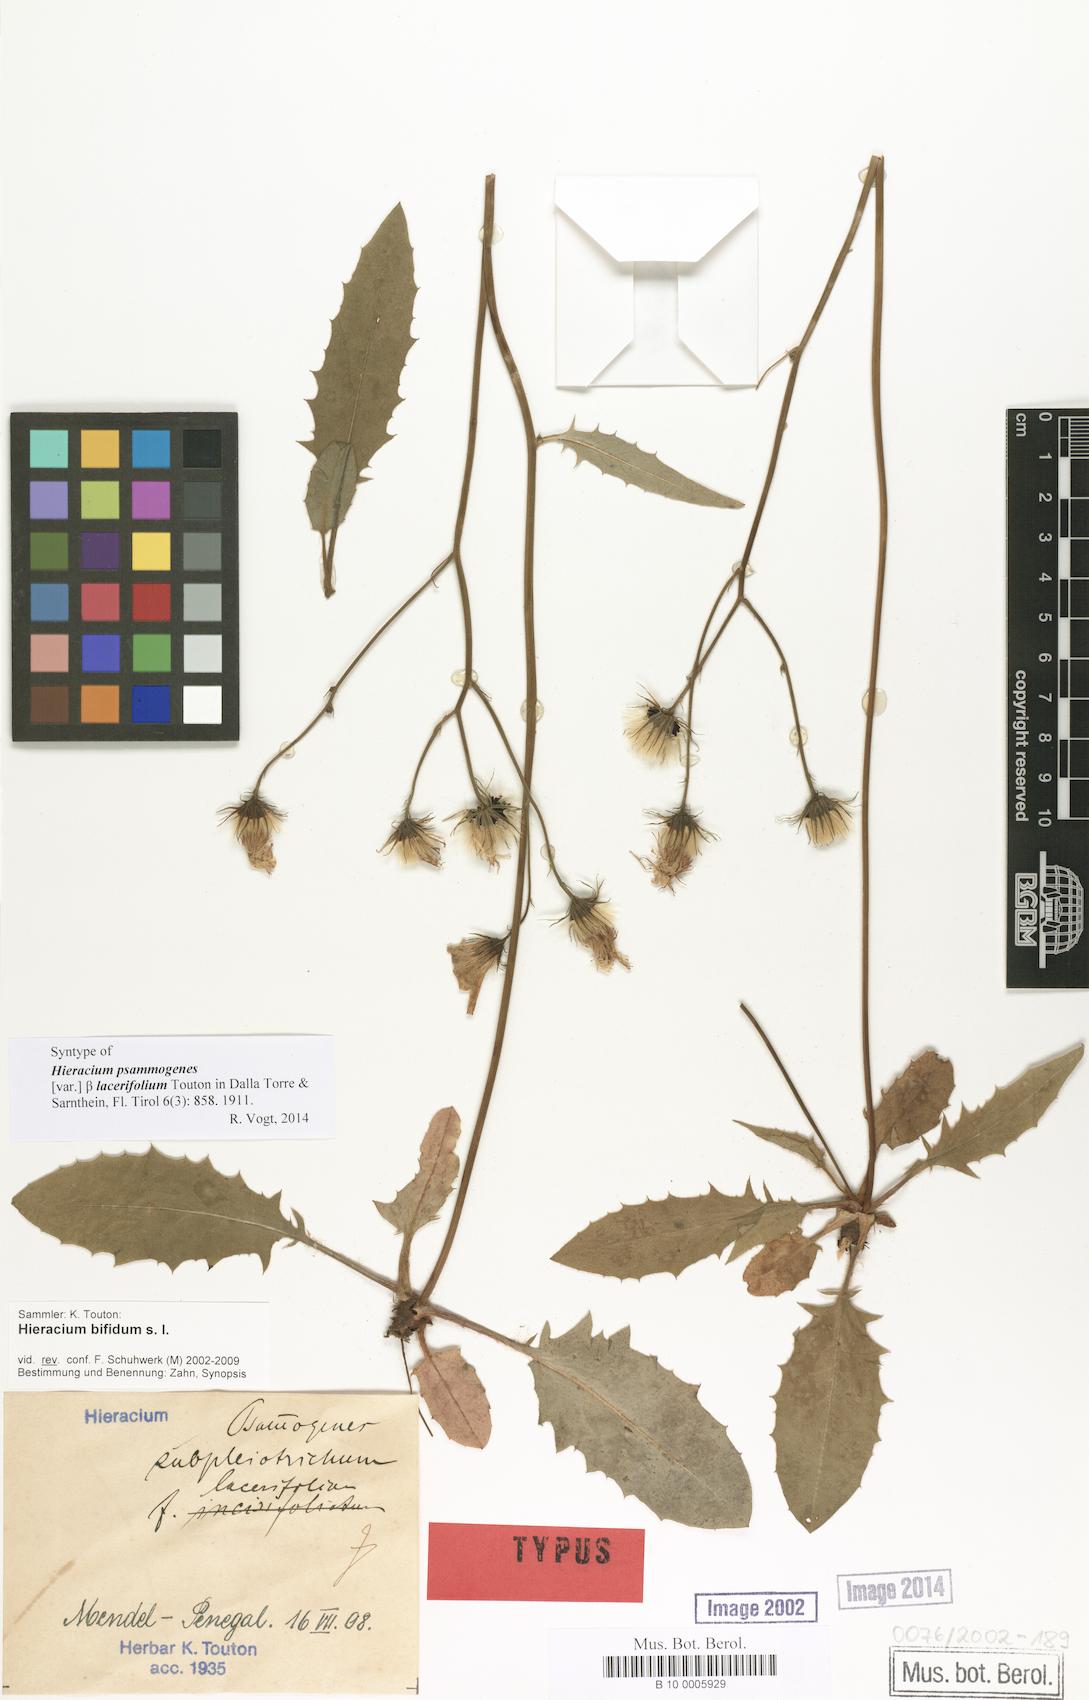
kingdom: Plantae
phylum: Tracheophyta
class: Magnoliopsida
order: Asterales
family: Asteraceae
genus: Hieracium
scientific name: Hieracium psammogenes
